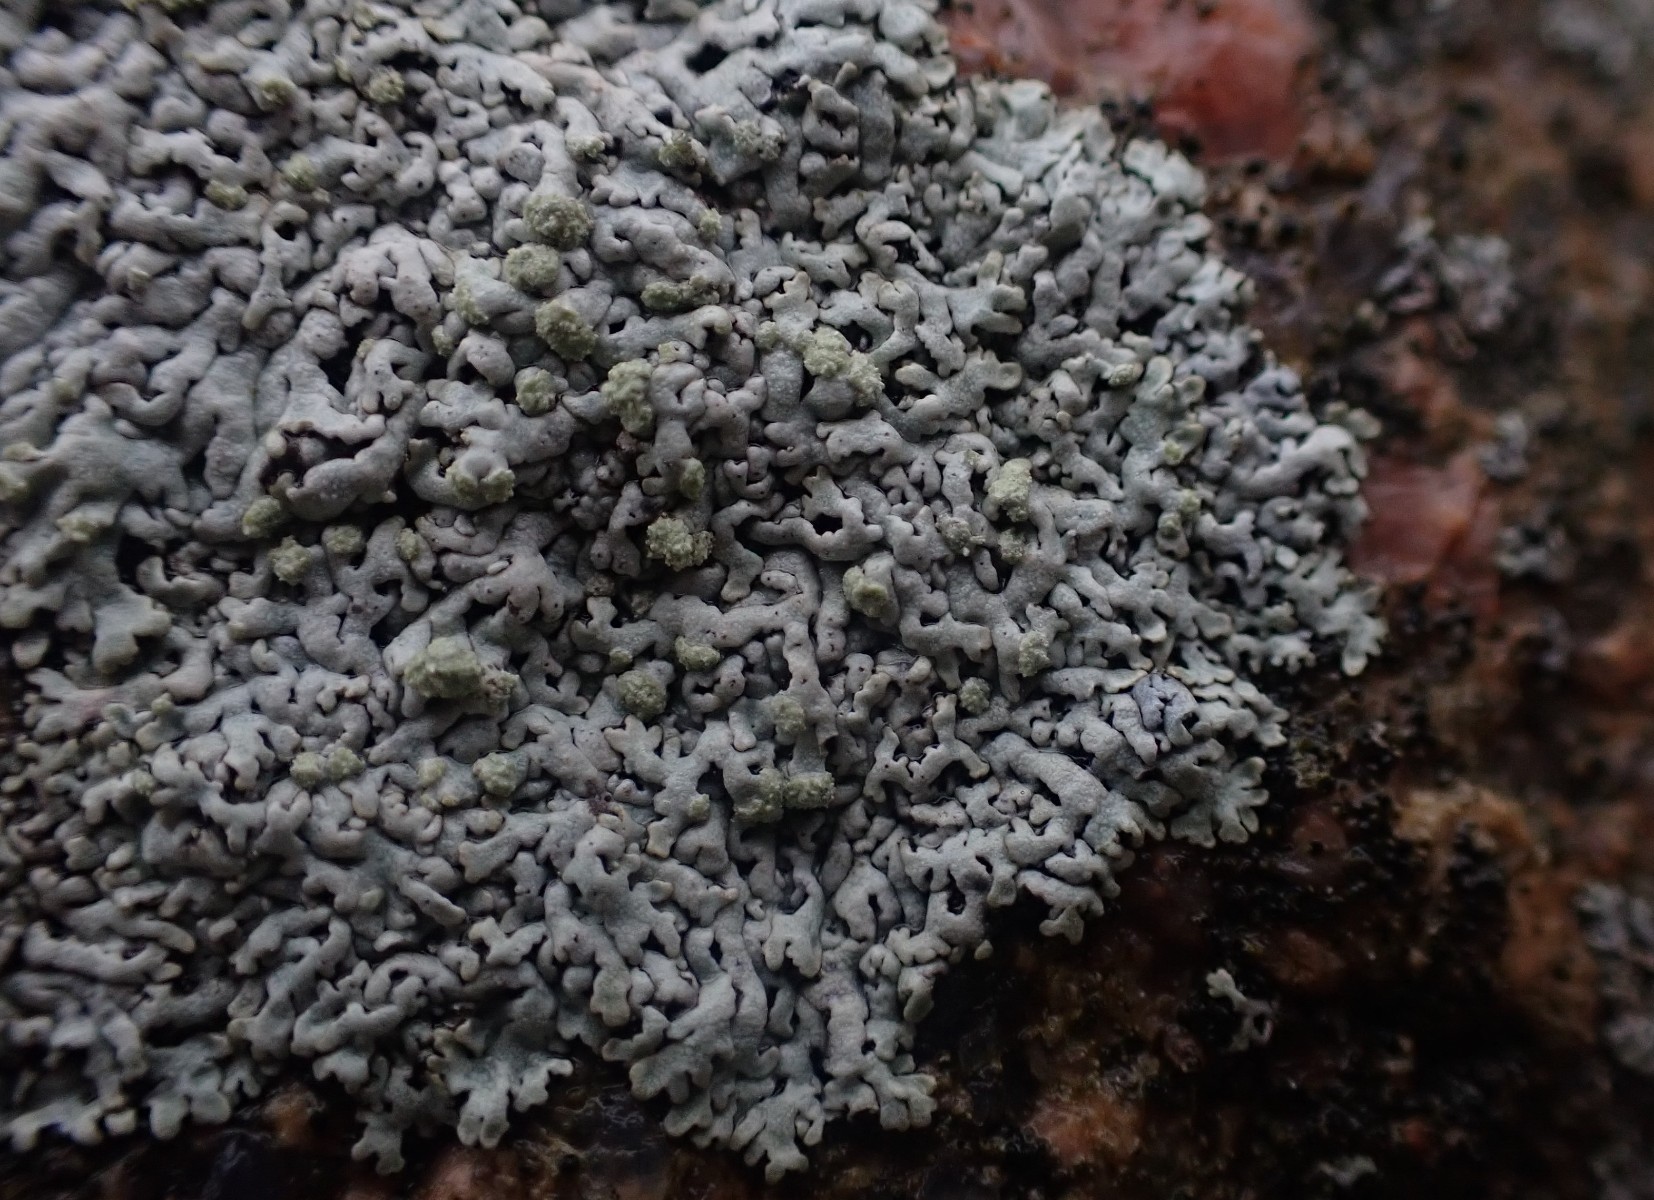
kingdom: Fungi
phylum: Ascomycota
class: Lecanoromycetes
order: Caliciales
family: Physciaceae
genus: Physcia
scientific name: Physcia caesia
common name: blågrå rosetlav
